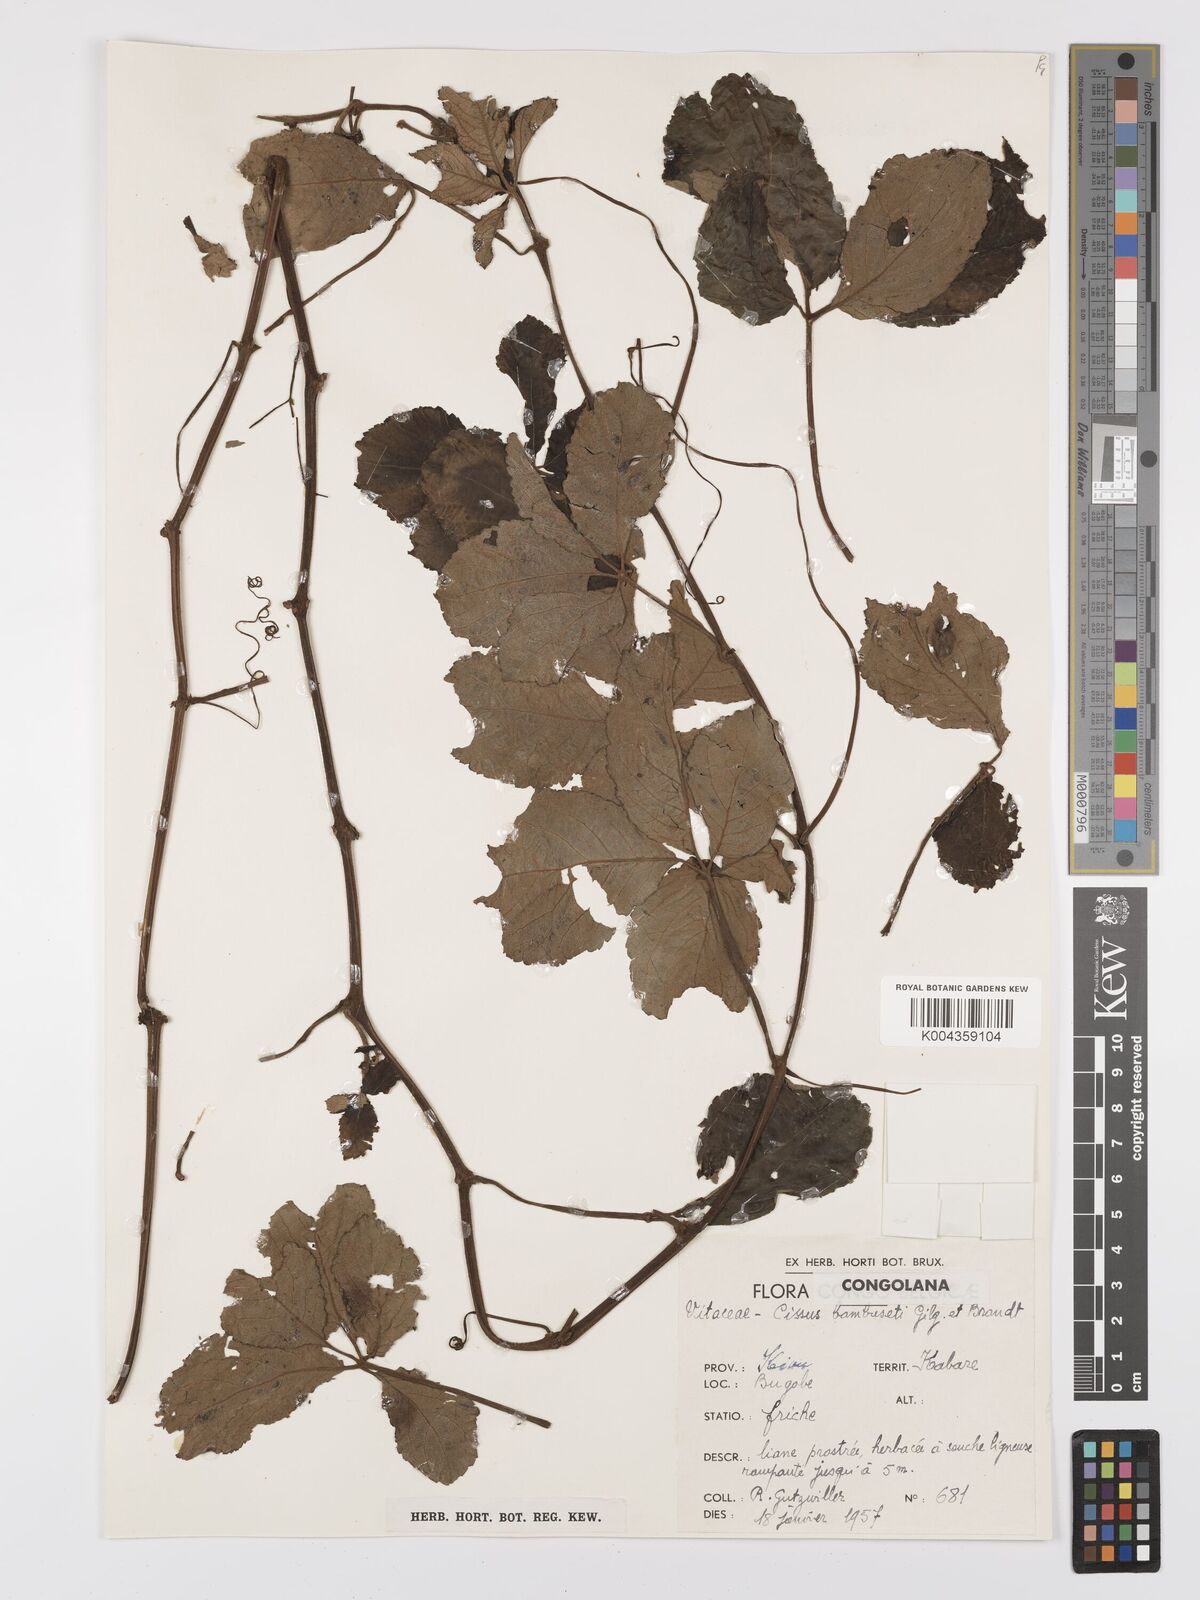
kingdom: Plantae
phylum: Tracheophyta
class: Magnoliopsida
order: Vitales
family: Vitaceae
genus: Cyphostemma
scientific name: Cyphostemma bambuseti
